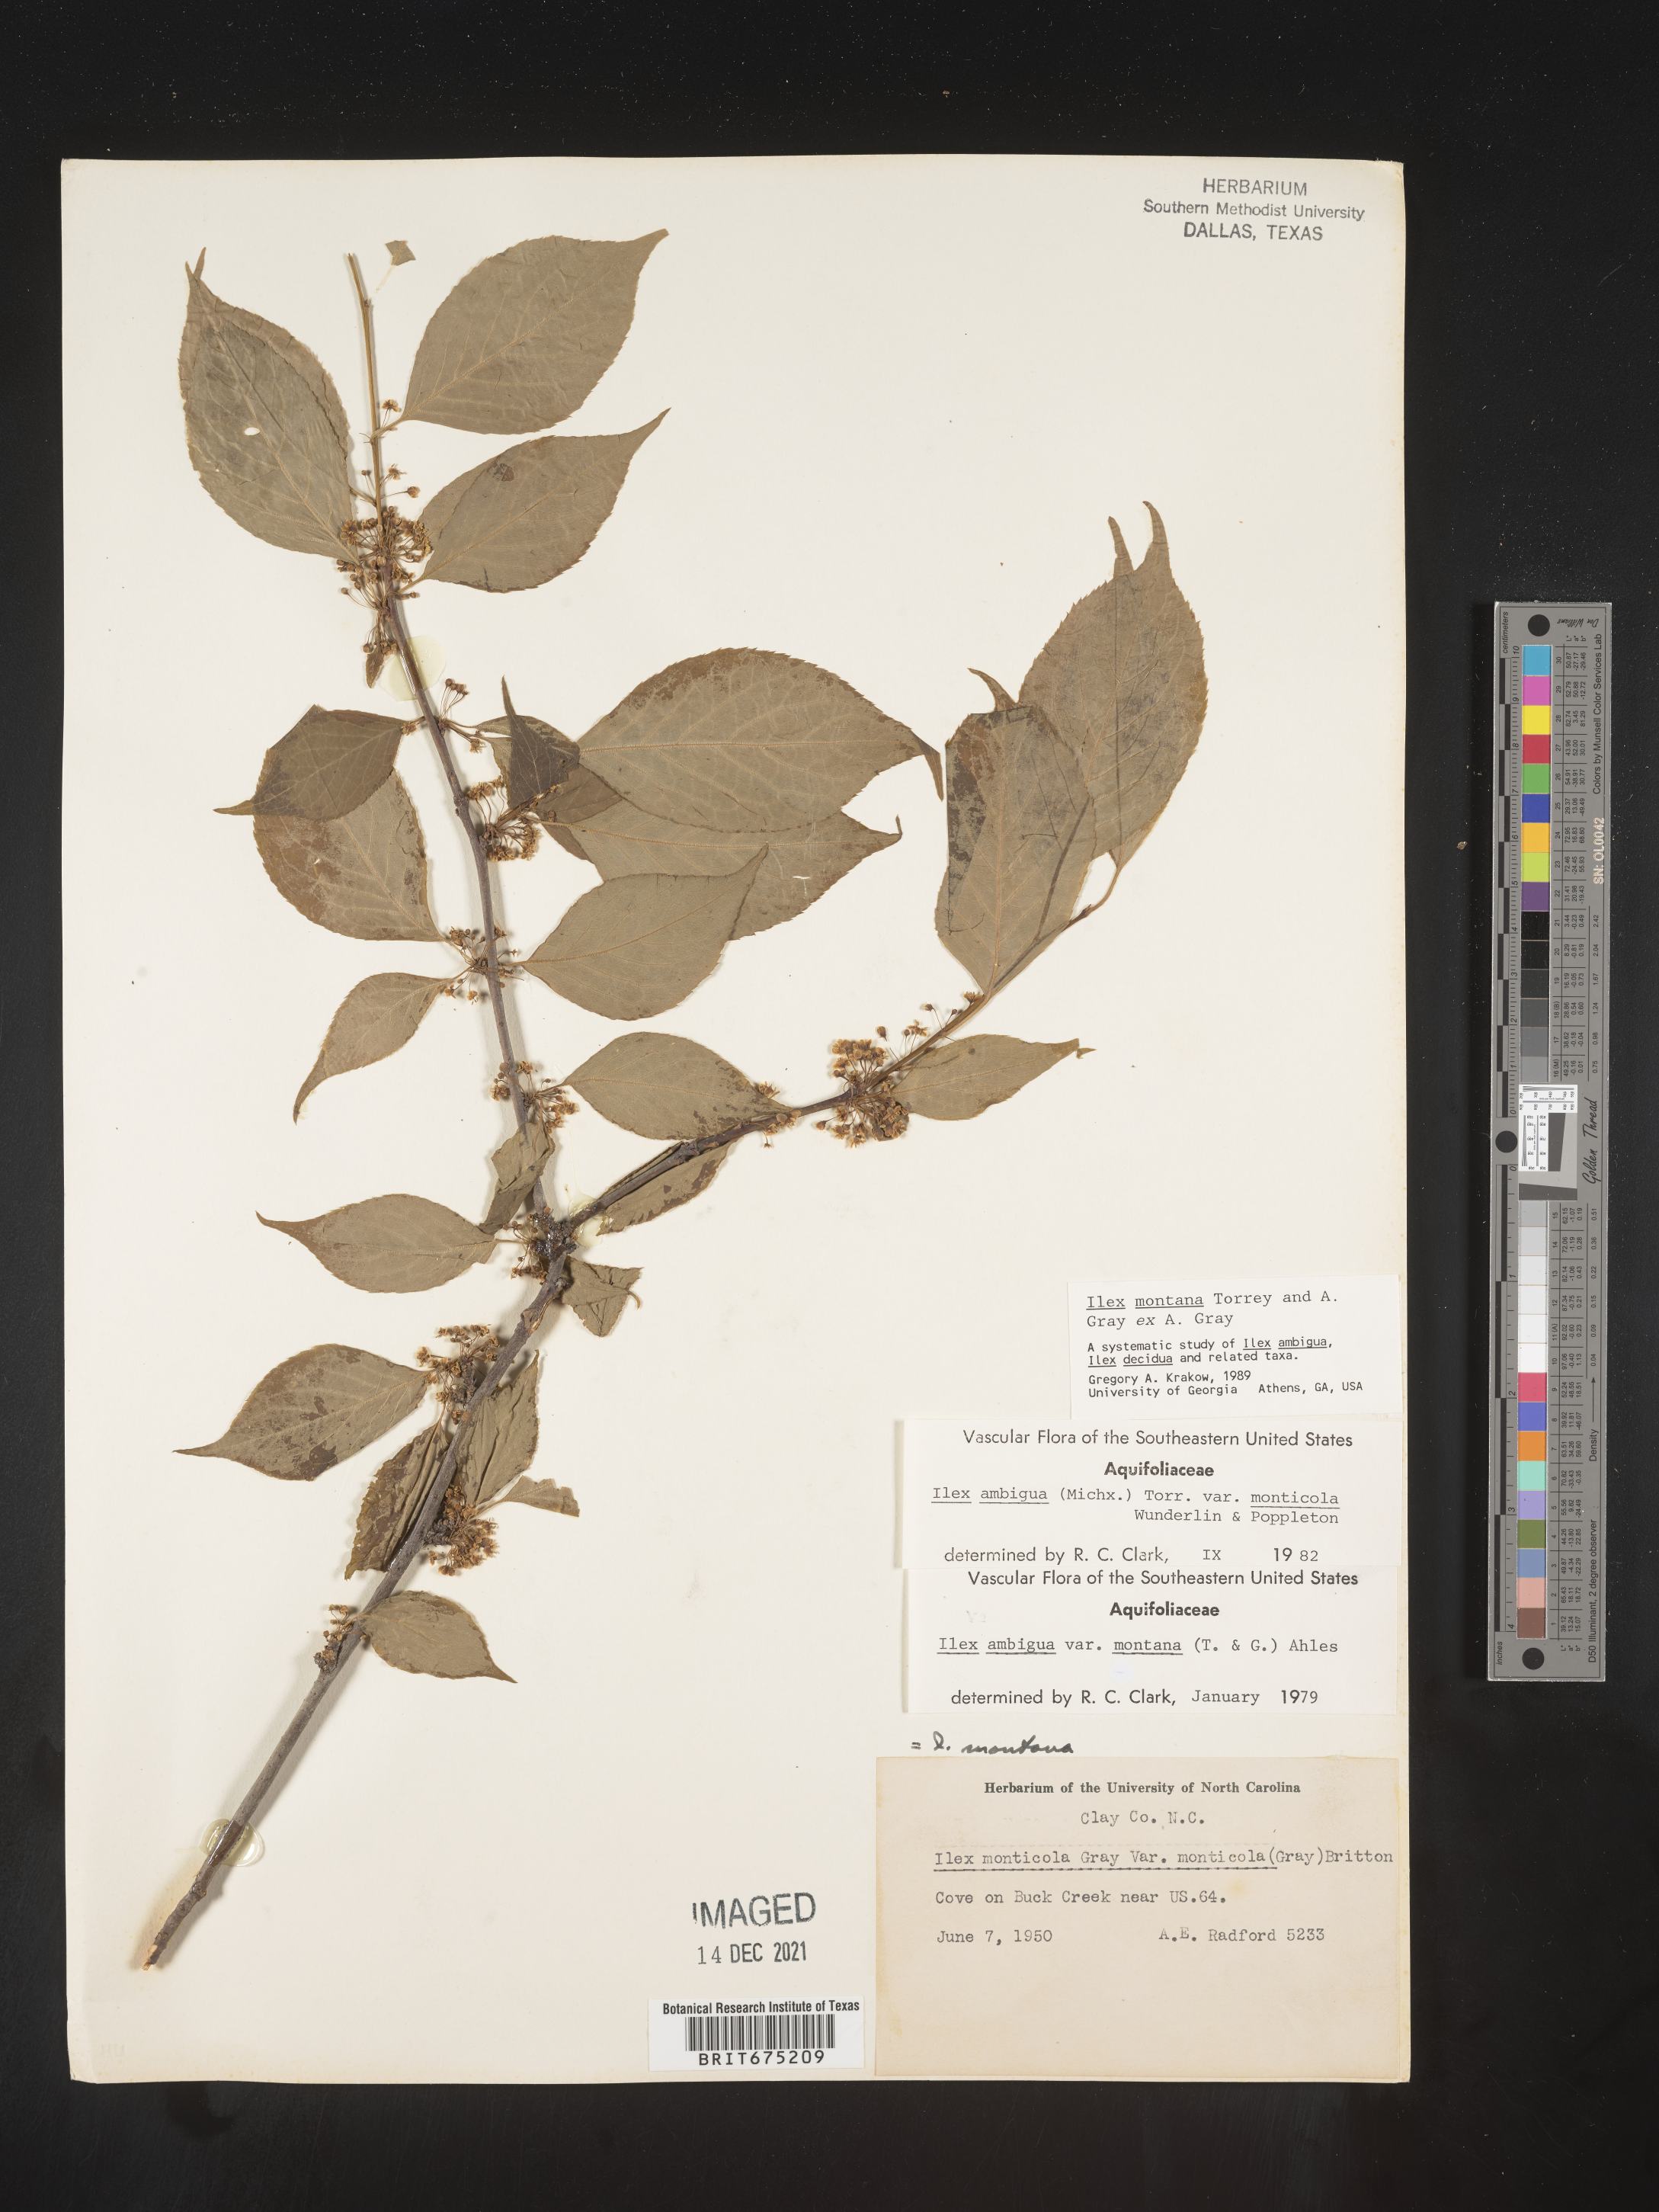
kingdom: Plantae
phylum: Tracheophyta
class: Magnoliopsida
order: Aquifoliales
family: Aquifoliaceae
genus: Ilex
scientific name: Ilex montana
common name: Mountain winterberry
